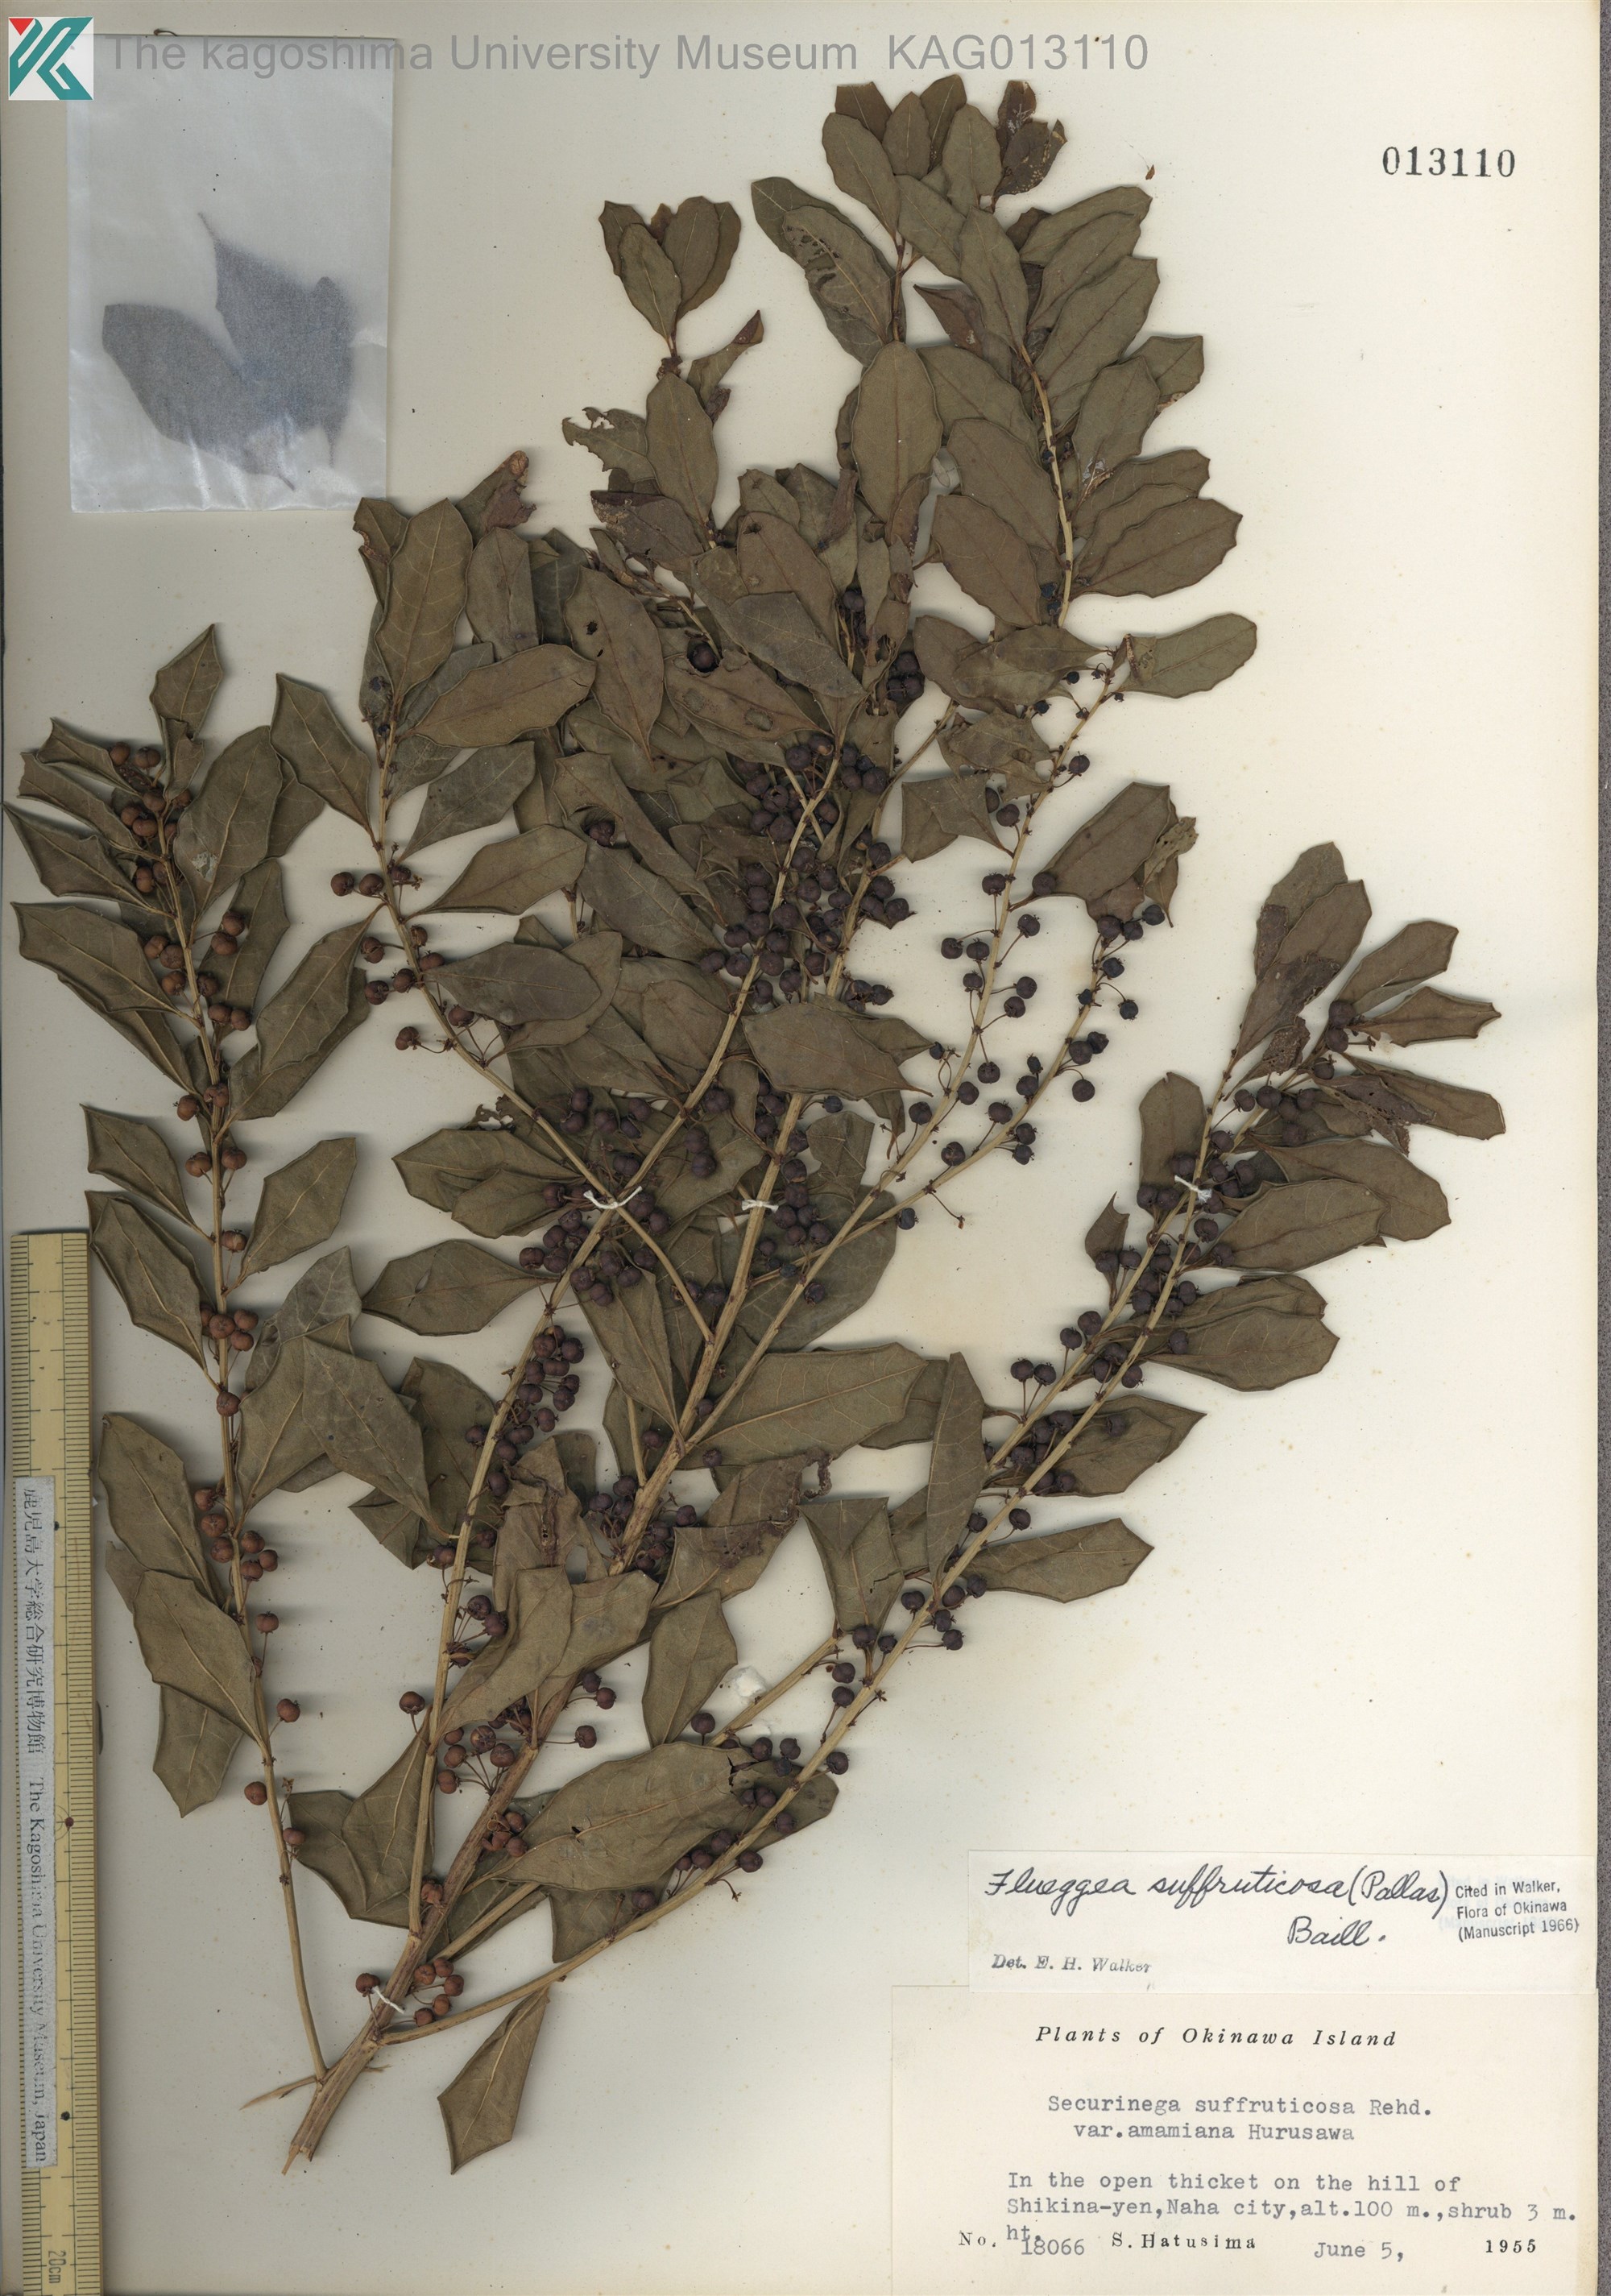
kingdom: Plantae
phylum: Tracheophyta
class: Magnoliopsida
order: Malpighiales
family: Phyllanthaceae
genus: Flueggea
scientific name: Flueggea suffruticosa
